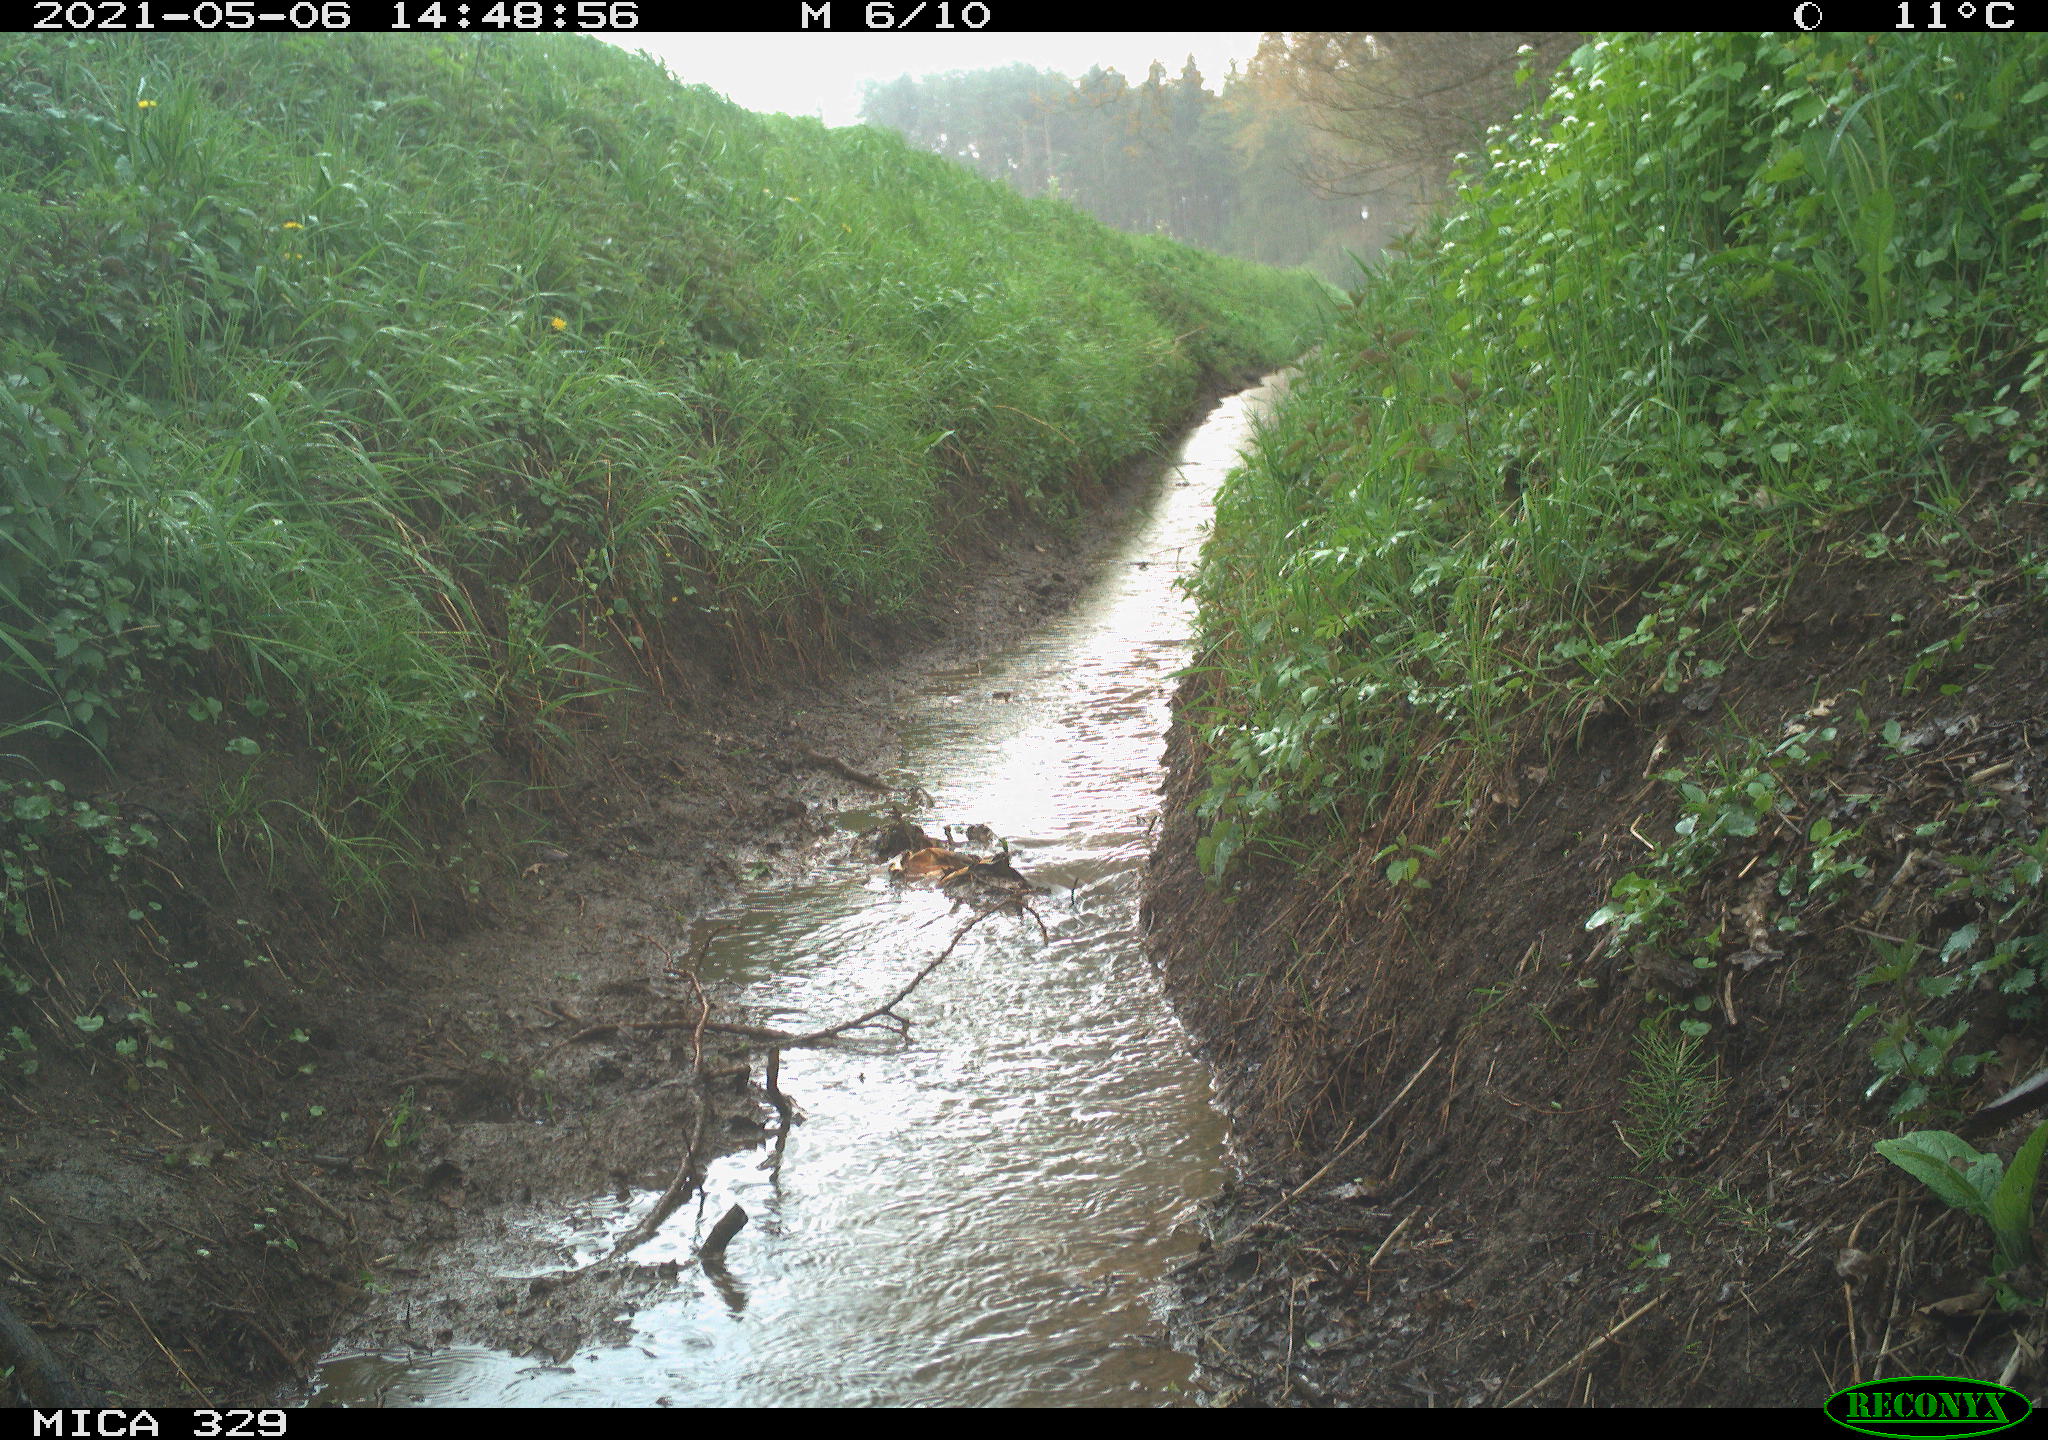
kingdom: Animalia
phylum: Chordata
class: Aves
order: Columbiformes
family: Columbidae
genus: Columba
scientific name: Columba palumbus
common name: Common wood pigeon
